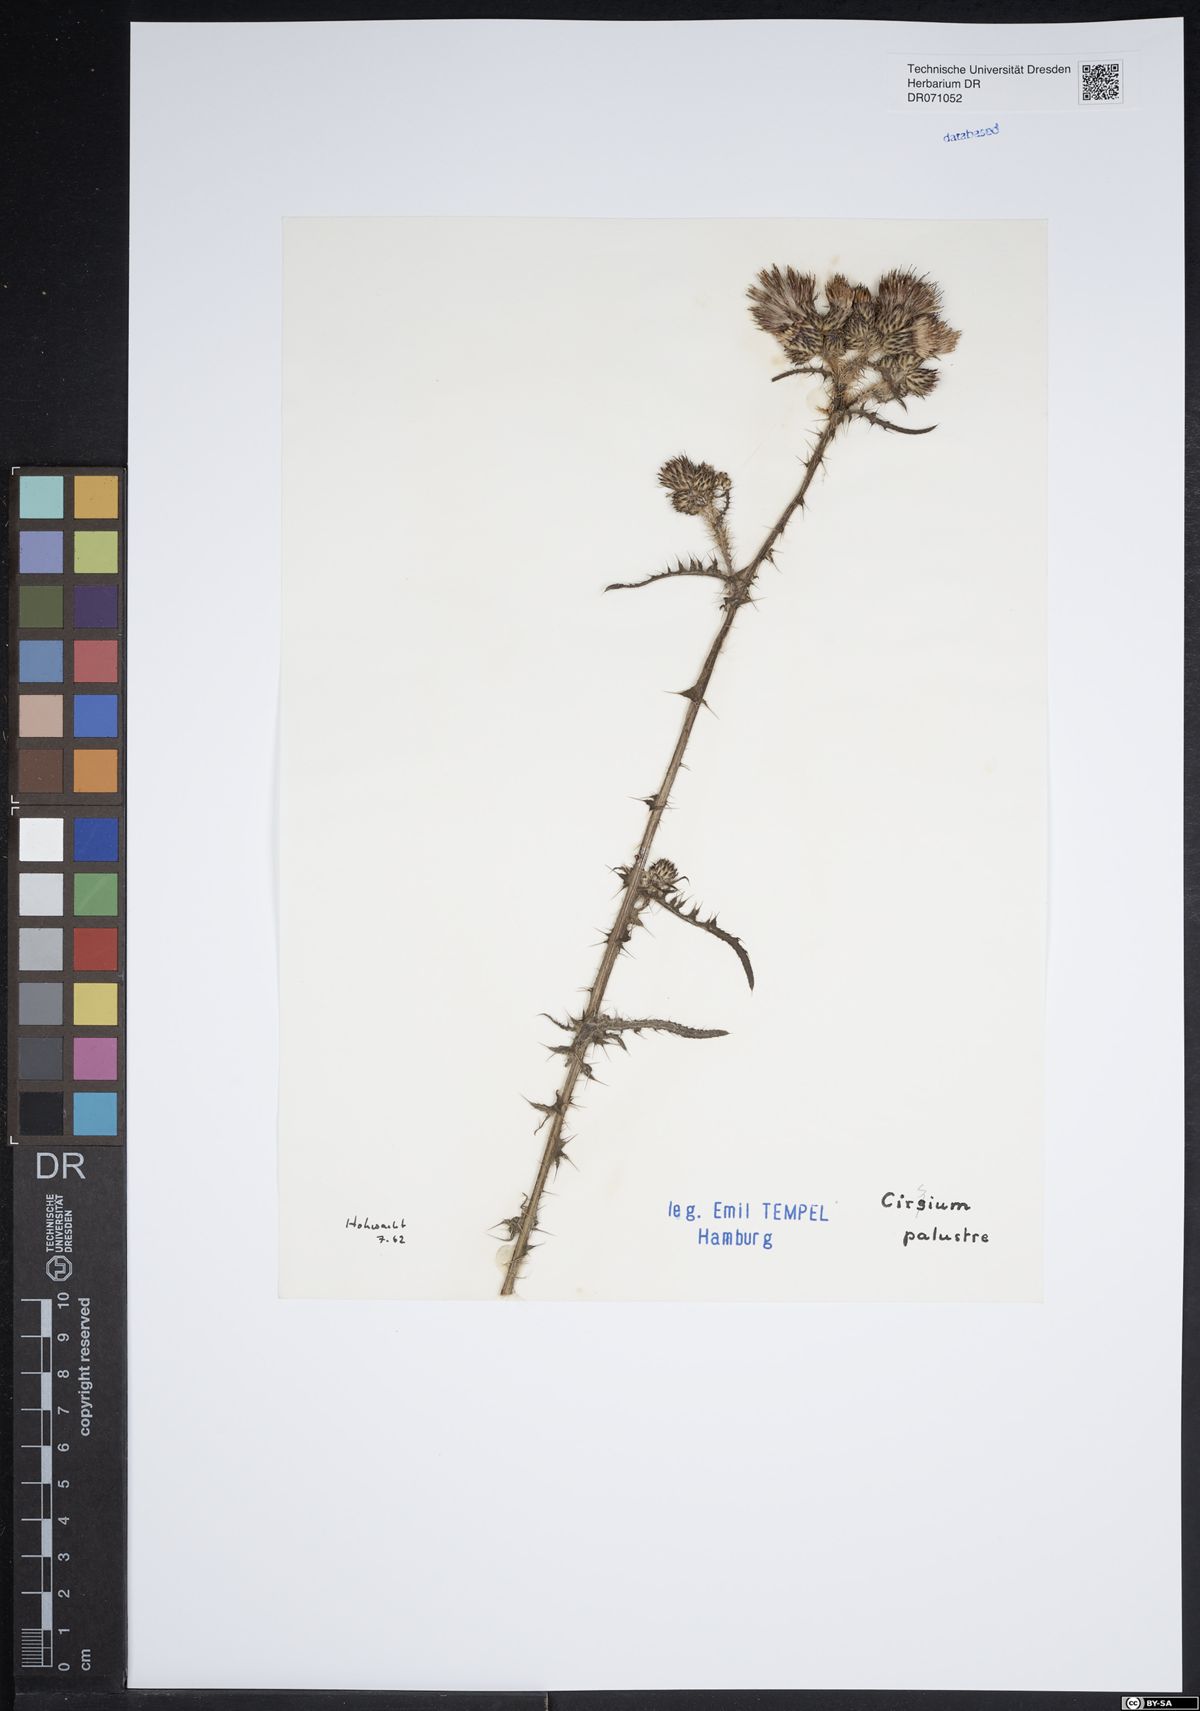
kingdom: Plantae
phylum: Tracheophyta
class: Magnoliopsida
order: Asterales
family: Asteraceae
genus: Cirsium
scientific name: Cirsium palustre
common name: Marsh thistle
